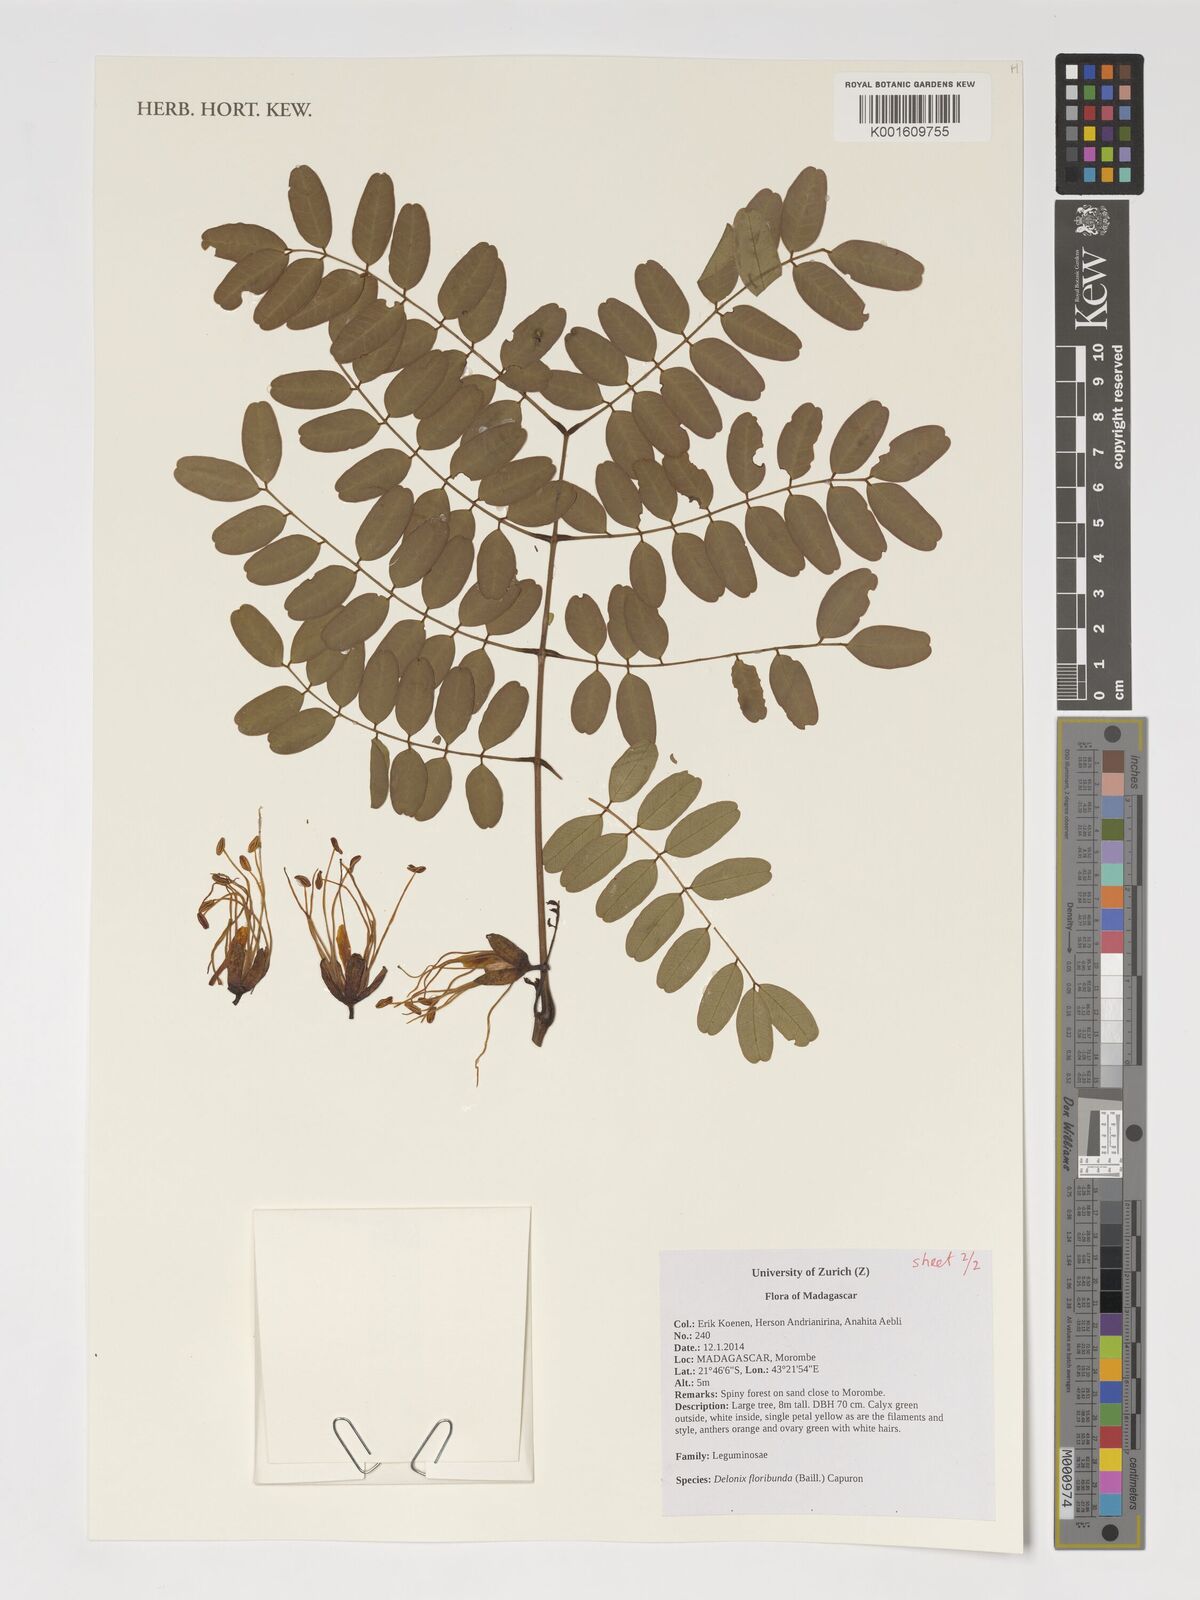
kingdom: Plantae
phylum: Tracheophyta
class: Magnoliopsida
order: Fabales
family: Fabaceae
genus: Delonix
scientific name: Delonix floribunda
